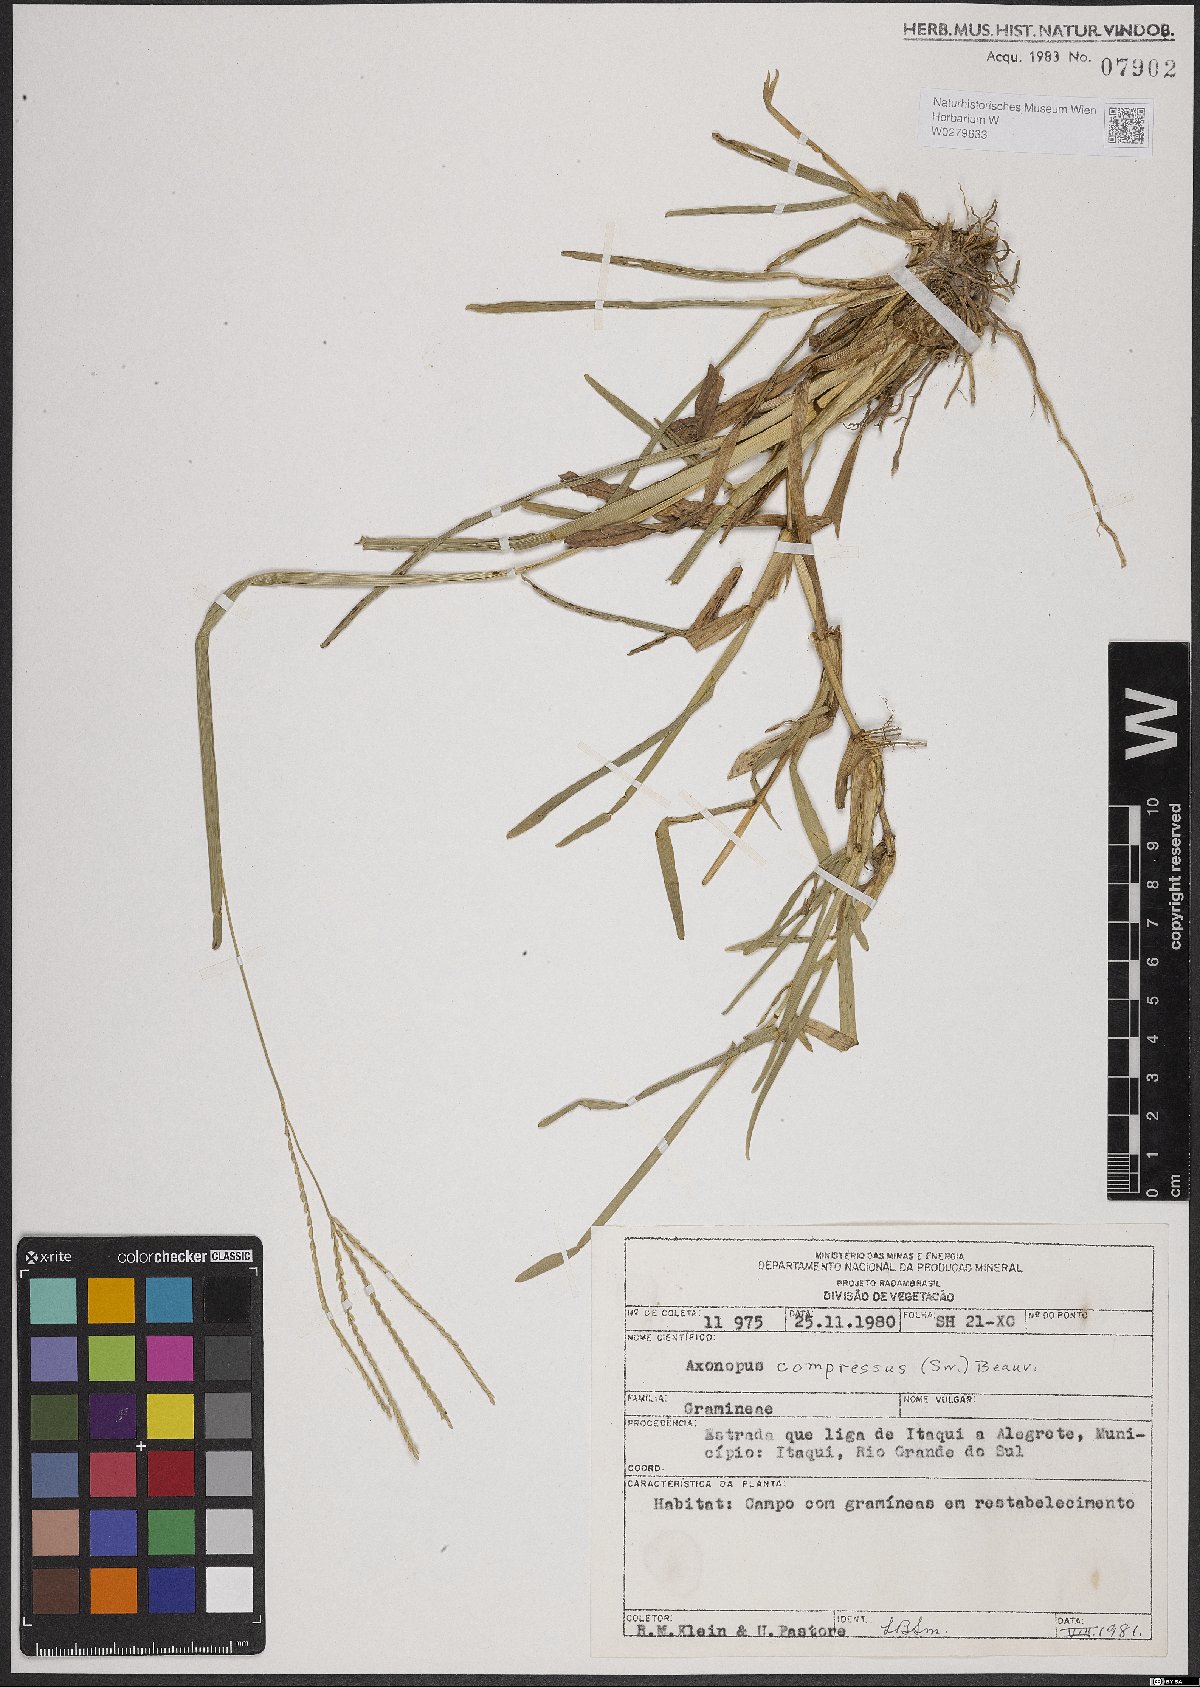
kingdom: Plantae
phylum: Tracheophyta
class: Liliopsida
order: Poales
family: Poaceae
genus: Axonopus
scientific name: Axonopus compressus
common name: American carpet grass
